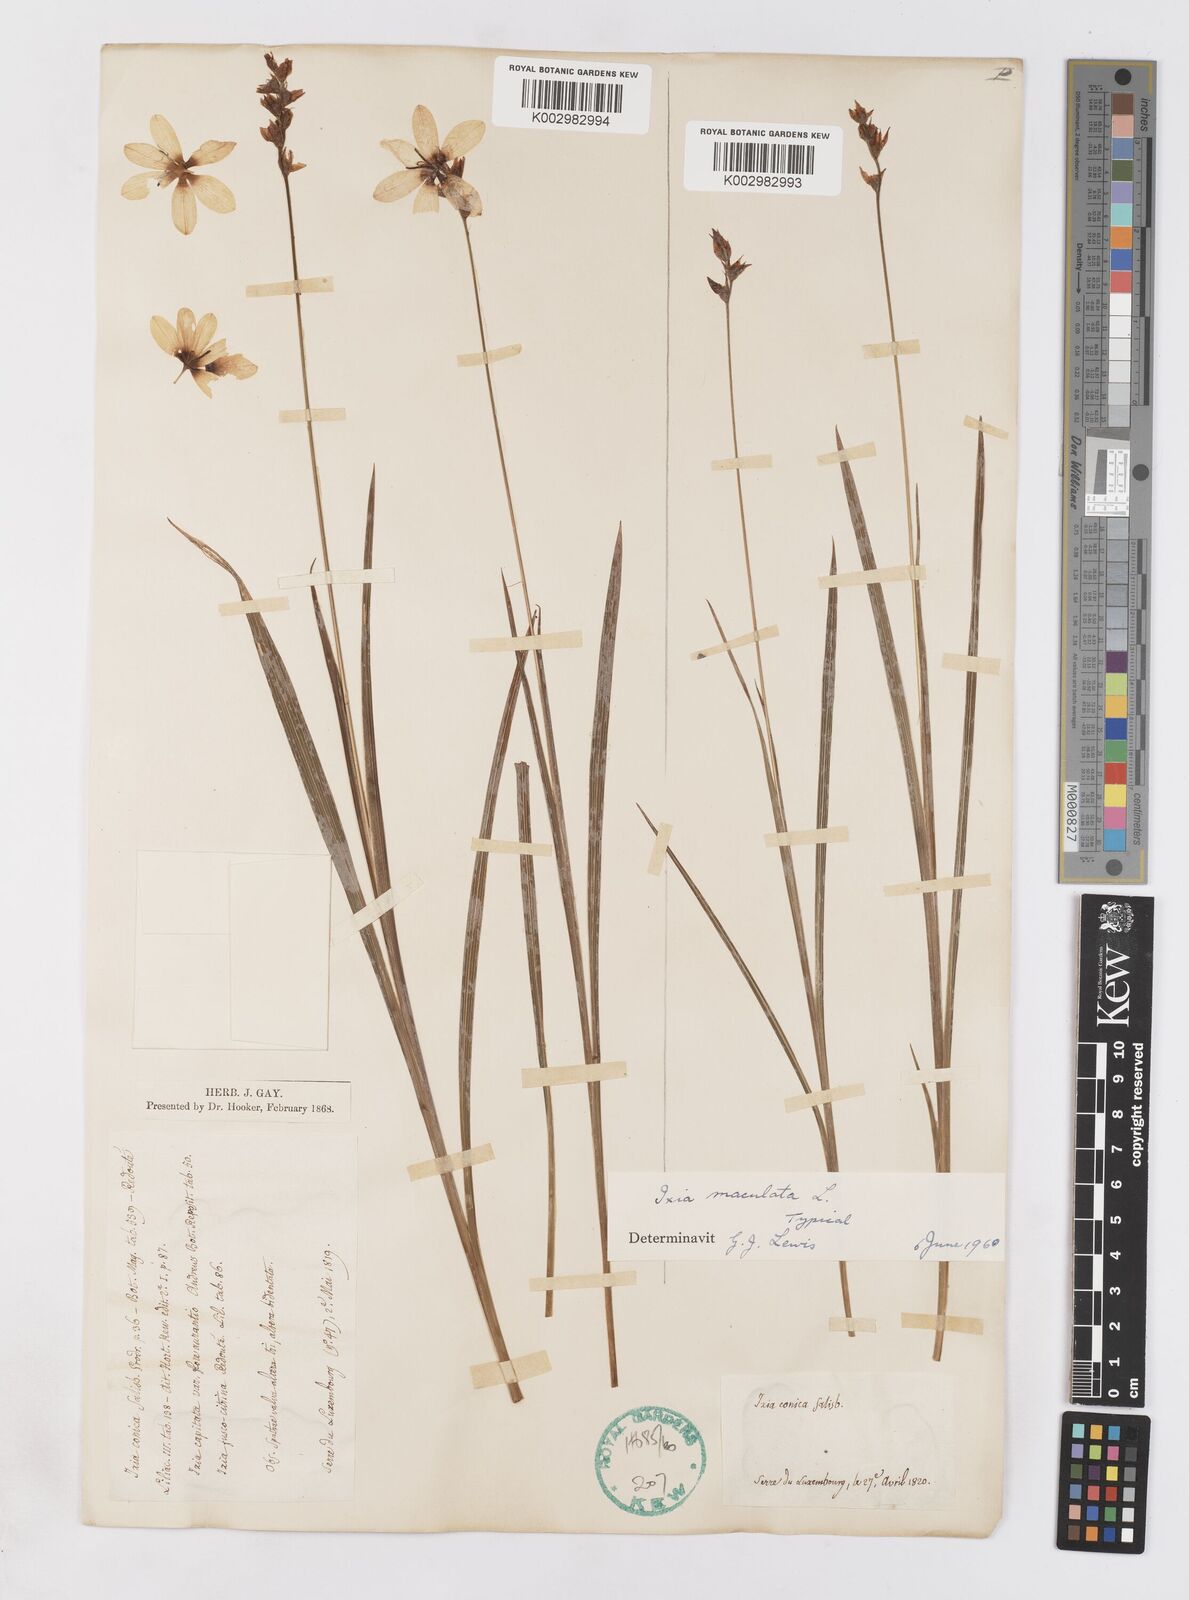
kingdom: Plantae
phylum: Tracheophyta
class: Liliopsida
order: Asparagales
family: Iridaceae
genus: Ixia
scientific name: Ixia maculata
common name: Spotted african cornlily
